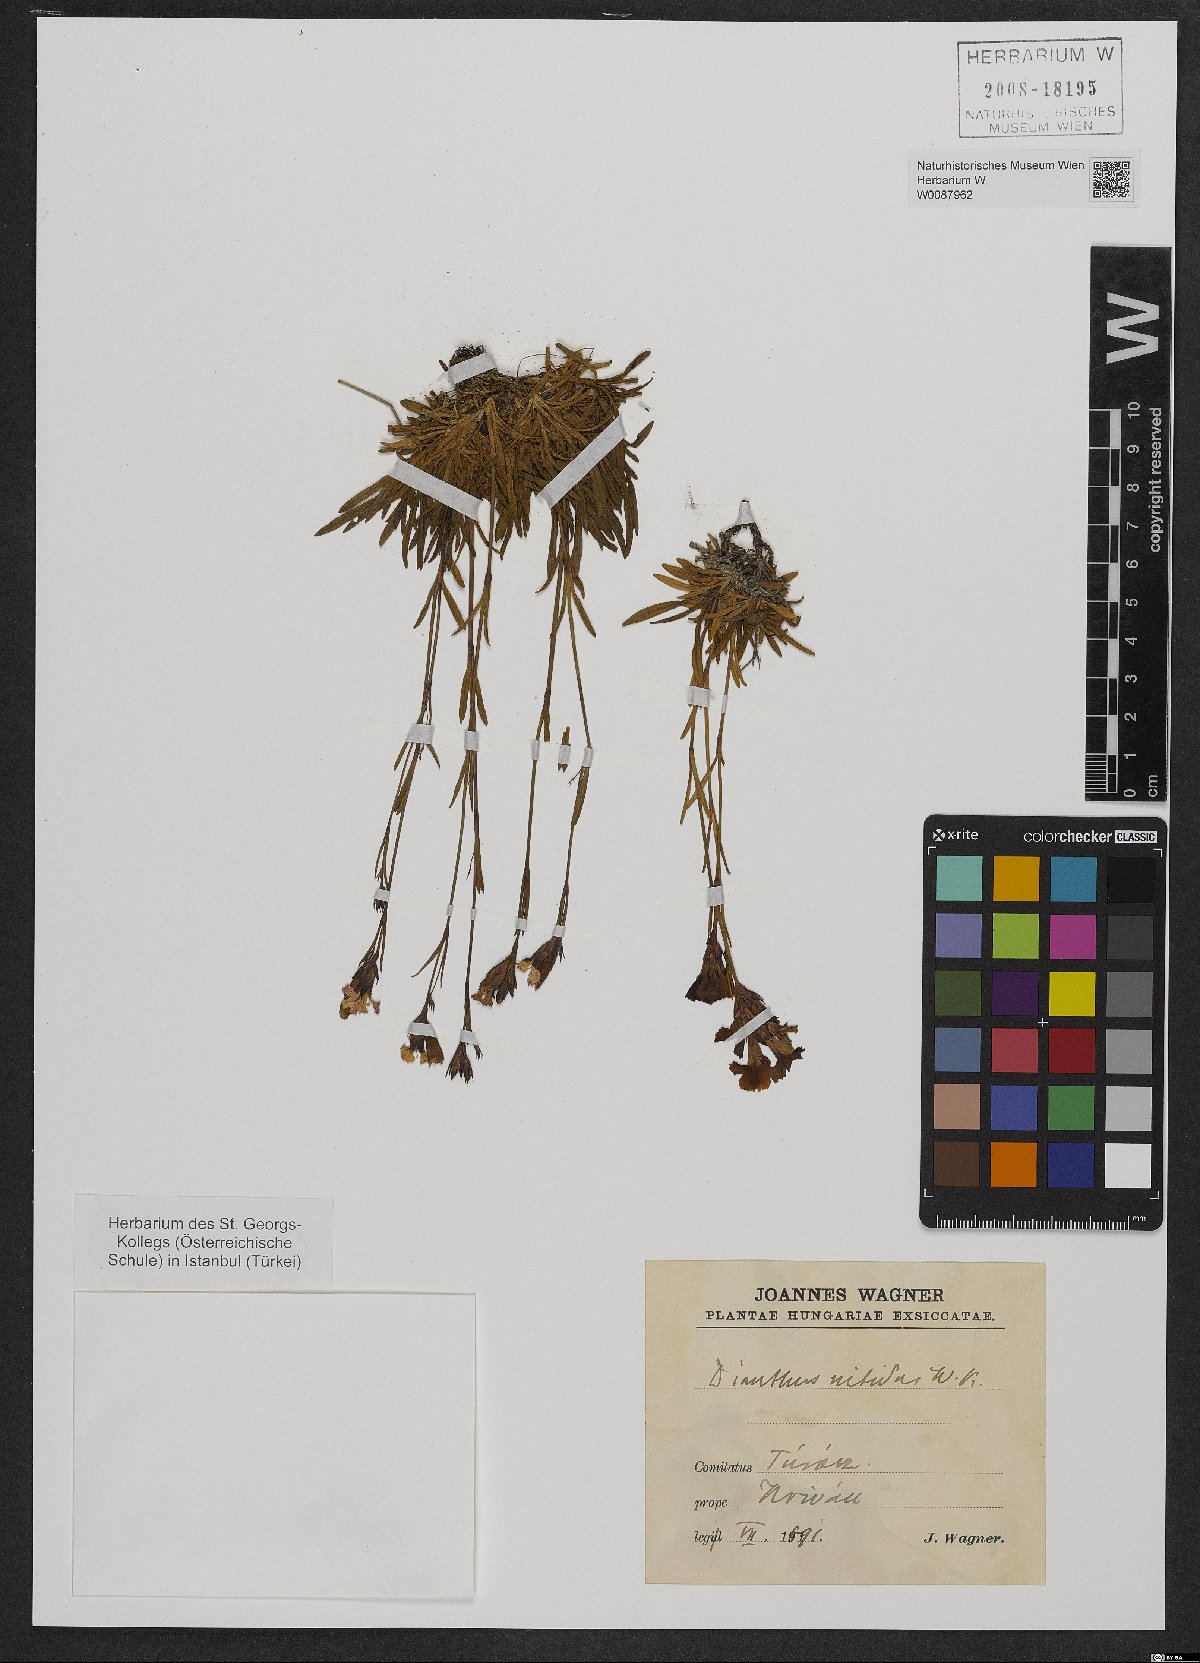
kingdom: Plantae
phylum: Tracheophyta
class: Magnoliopsida
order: Caryophyllales
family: Caryophyllaceae
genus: Dianthus
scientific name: Dianthus nitidus
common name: Carpathian glossy pink
